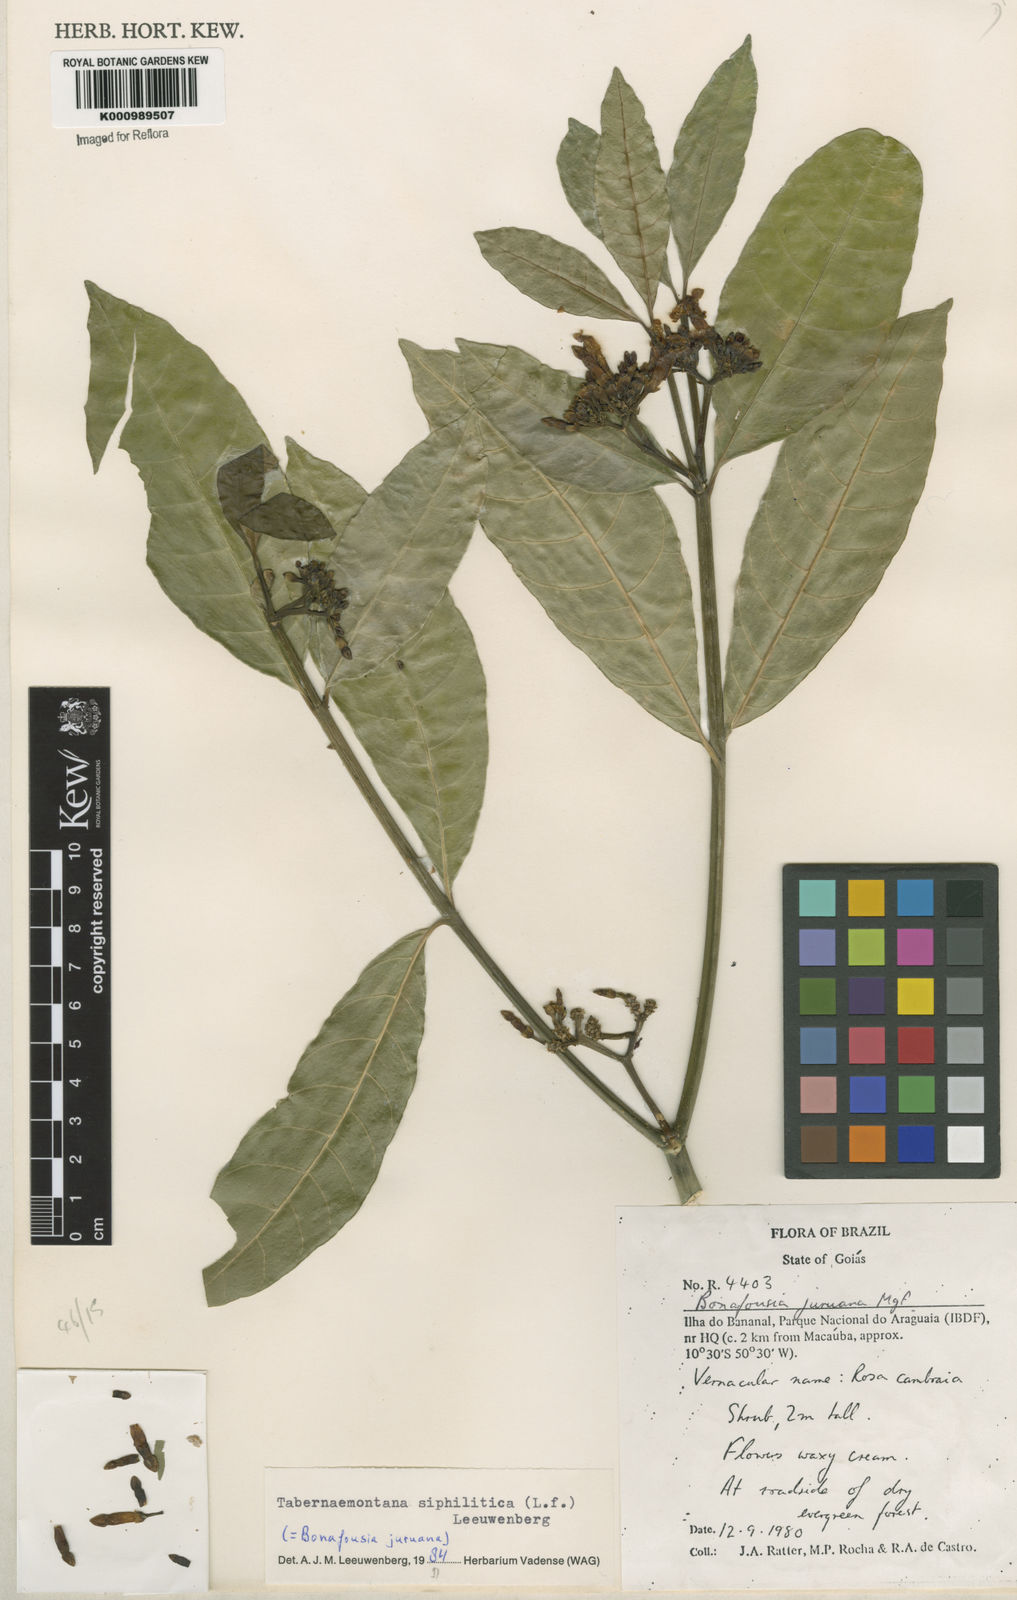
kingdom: Plantae
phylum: Tracheophyta
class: Magnoliopsida
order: Gentianales
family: Apocynaceae
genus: Tabernaemontana
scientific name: Tabernaemontana siphilitica
